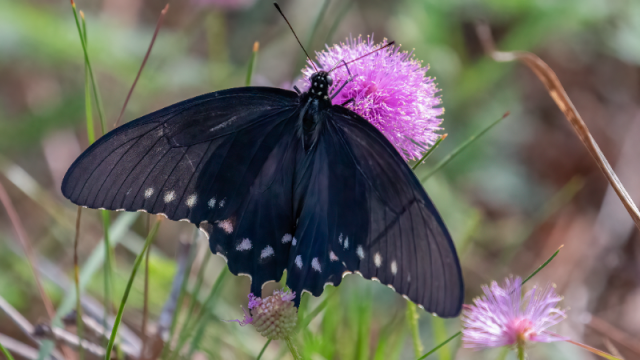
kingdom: Animalia
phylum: Arthropoda
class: Insecta
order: Lepidoptera
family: Papilionidae
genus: Battus
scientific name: Battus philenor
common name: Pipevine Swallowtail
